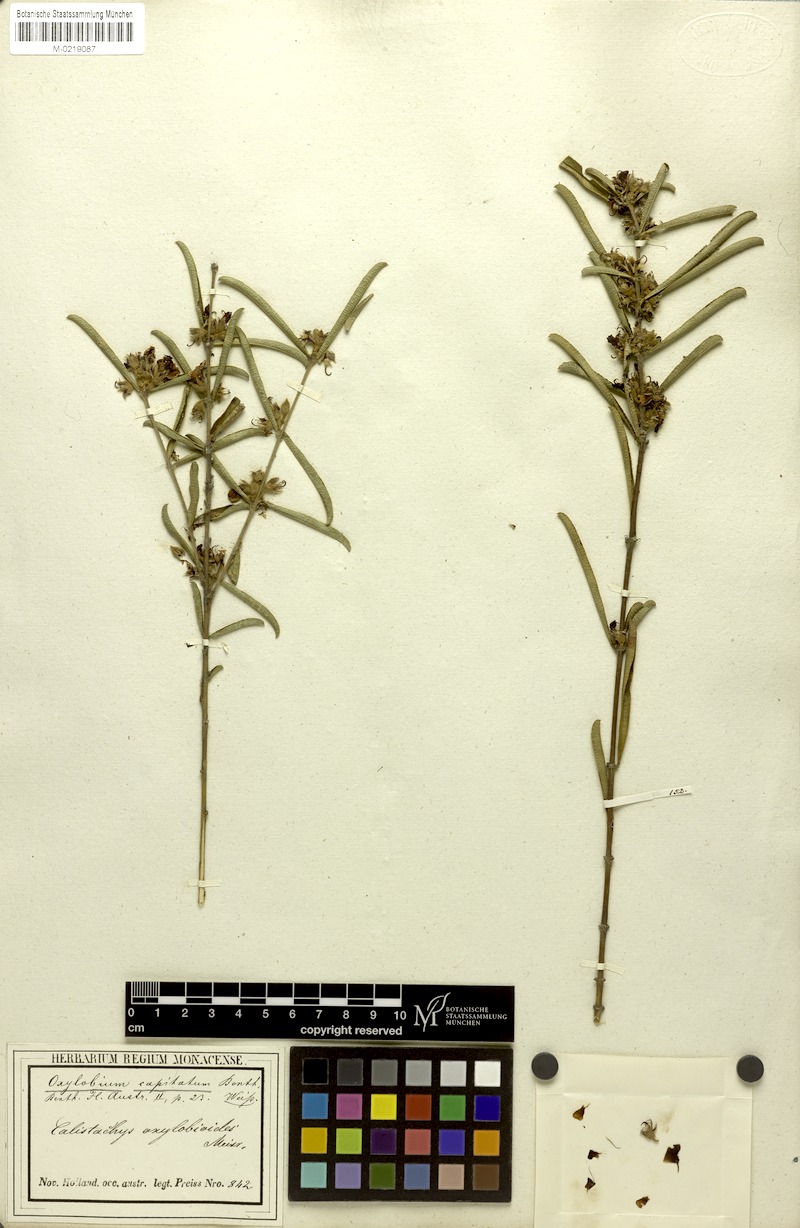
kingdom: Plantae
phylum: Tracheophyta
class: Magnoliopsida
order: Fabales
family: Fabaceae
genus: Gastrolobium
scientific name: Gastrolobium linearifolium
